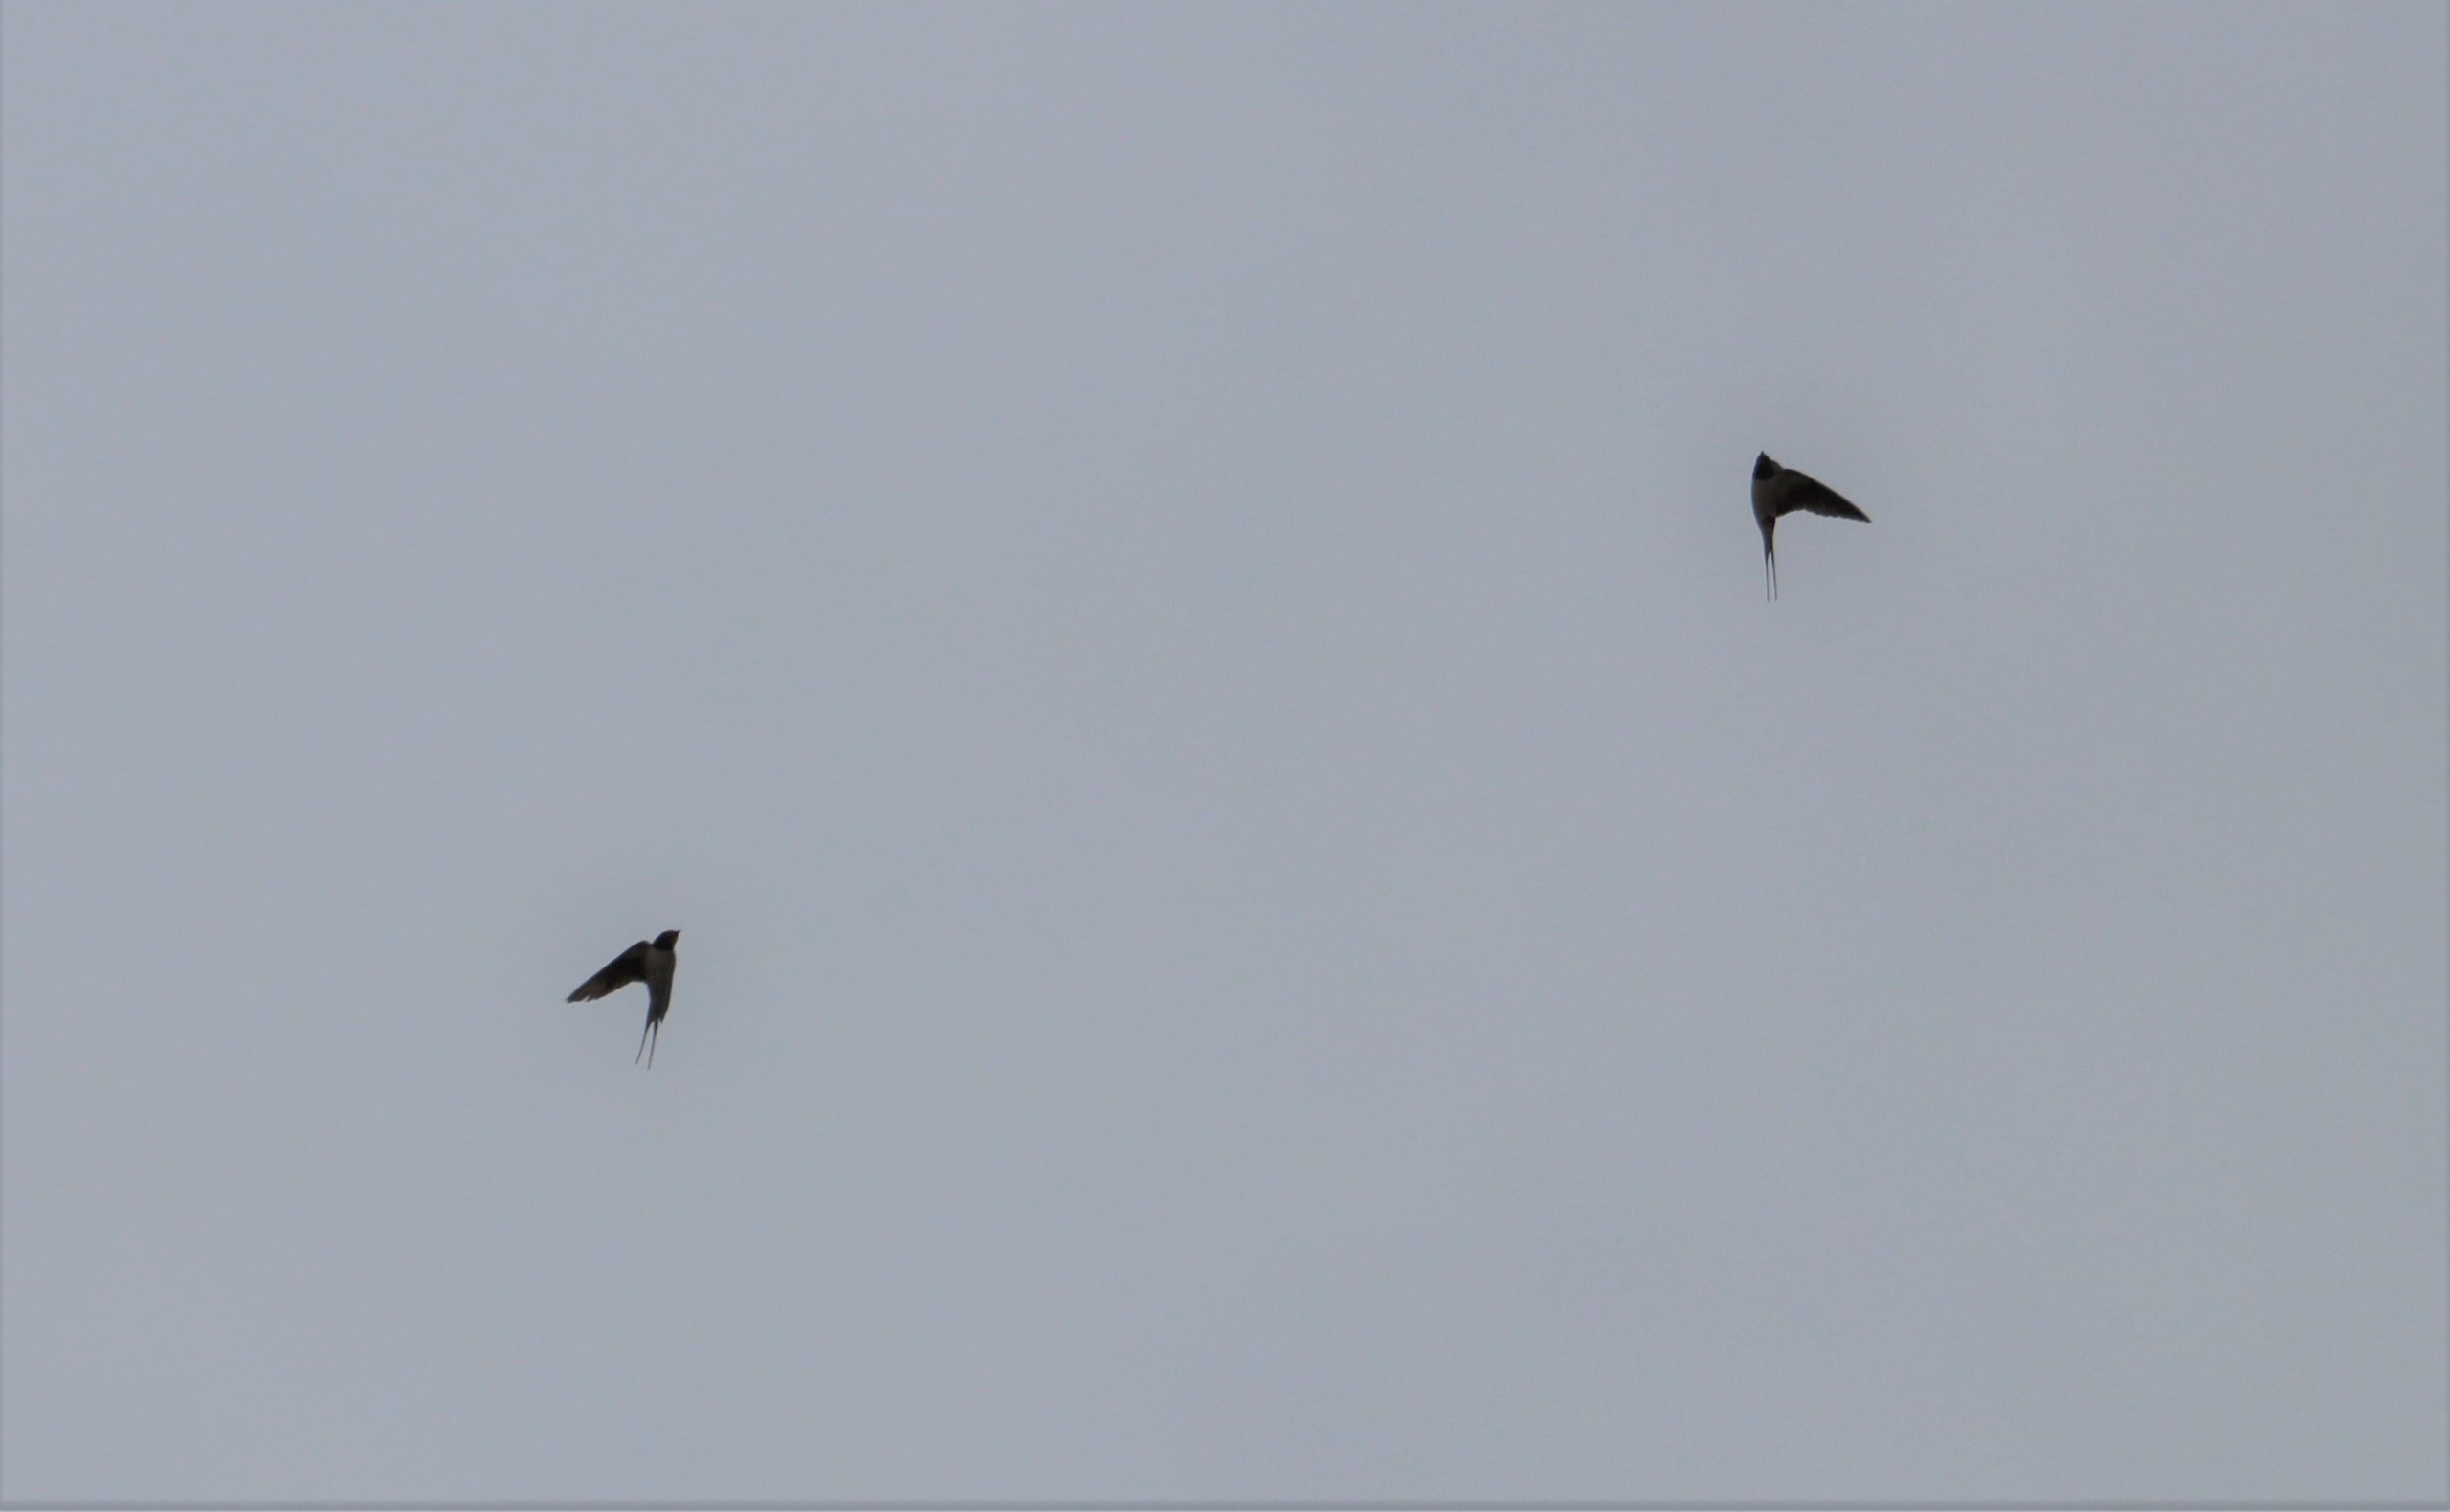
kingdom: Animalia
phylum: Chordata
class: Aves
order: Passeriformes
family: Hirundinidae
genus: Hirundo
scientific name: Hirundo rustica
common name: Landsvale
